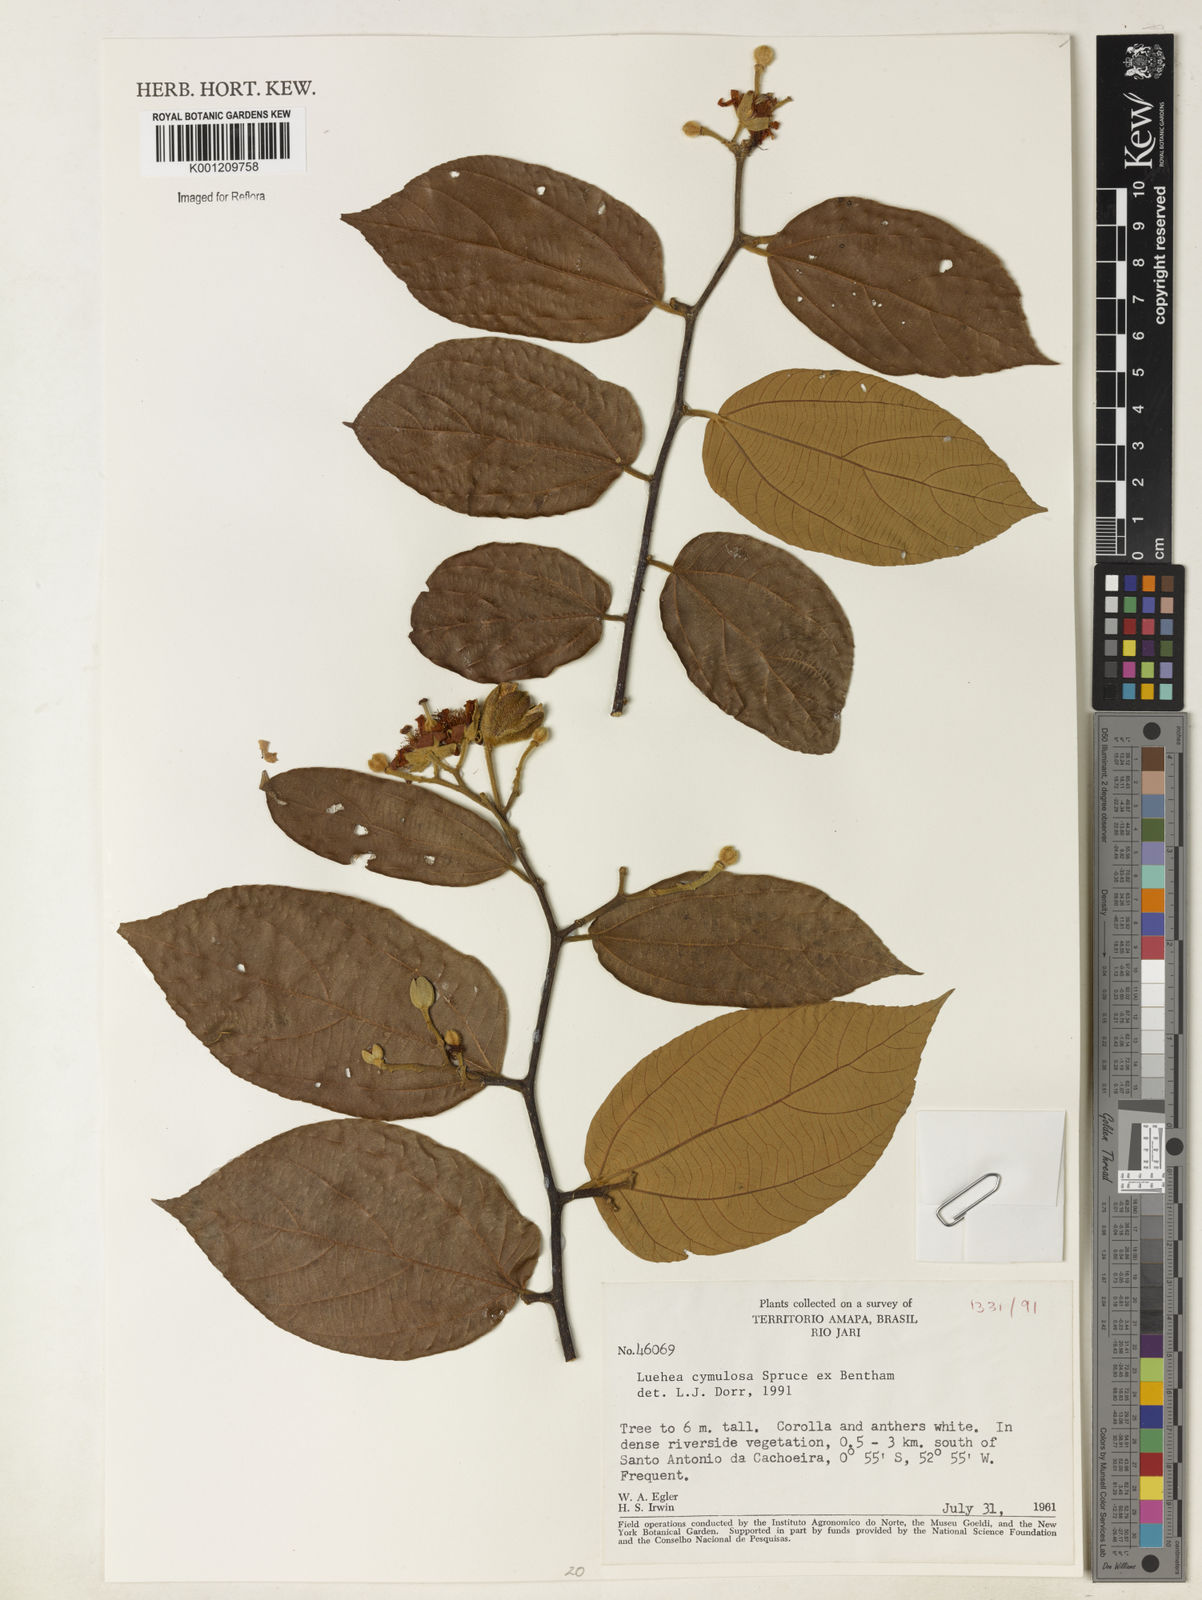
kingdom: Plantae
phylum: Tracheophyta
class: Magnoliopsida
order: Malvales
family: Malvaceae
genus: Luehea
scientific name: Luehea cymulosa
